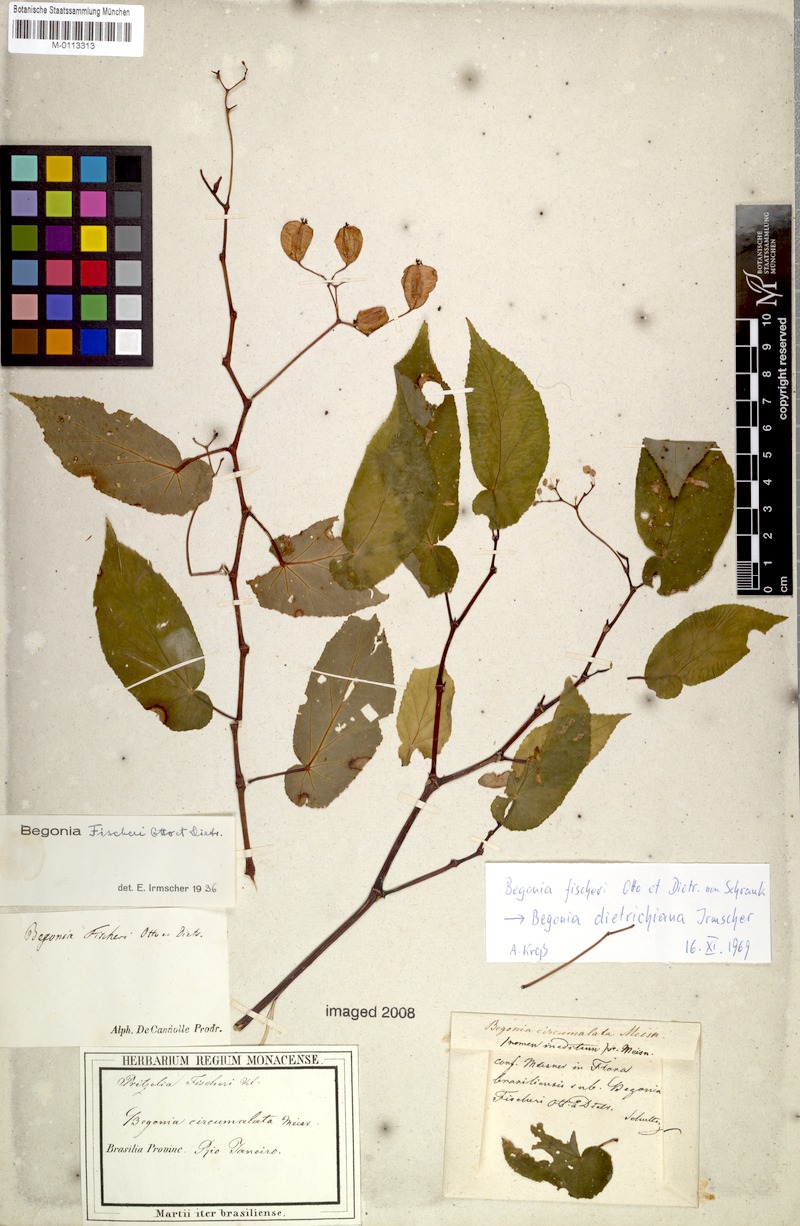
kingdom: Plantae
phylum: Tracheophyta
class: Magnoliopsida
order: Cucurbitales
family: Begoniaceae
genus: Begonia
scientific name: Begonia dietrichiana
